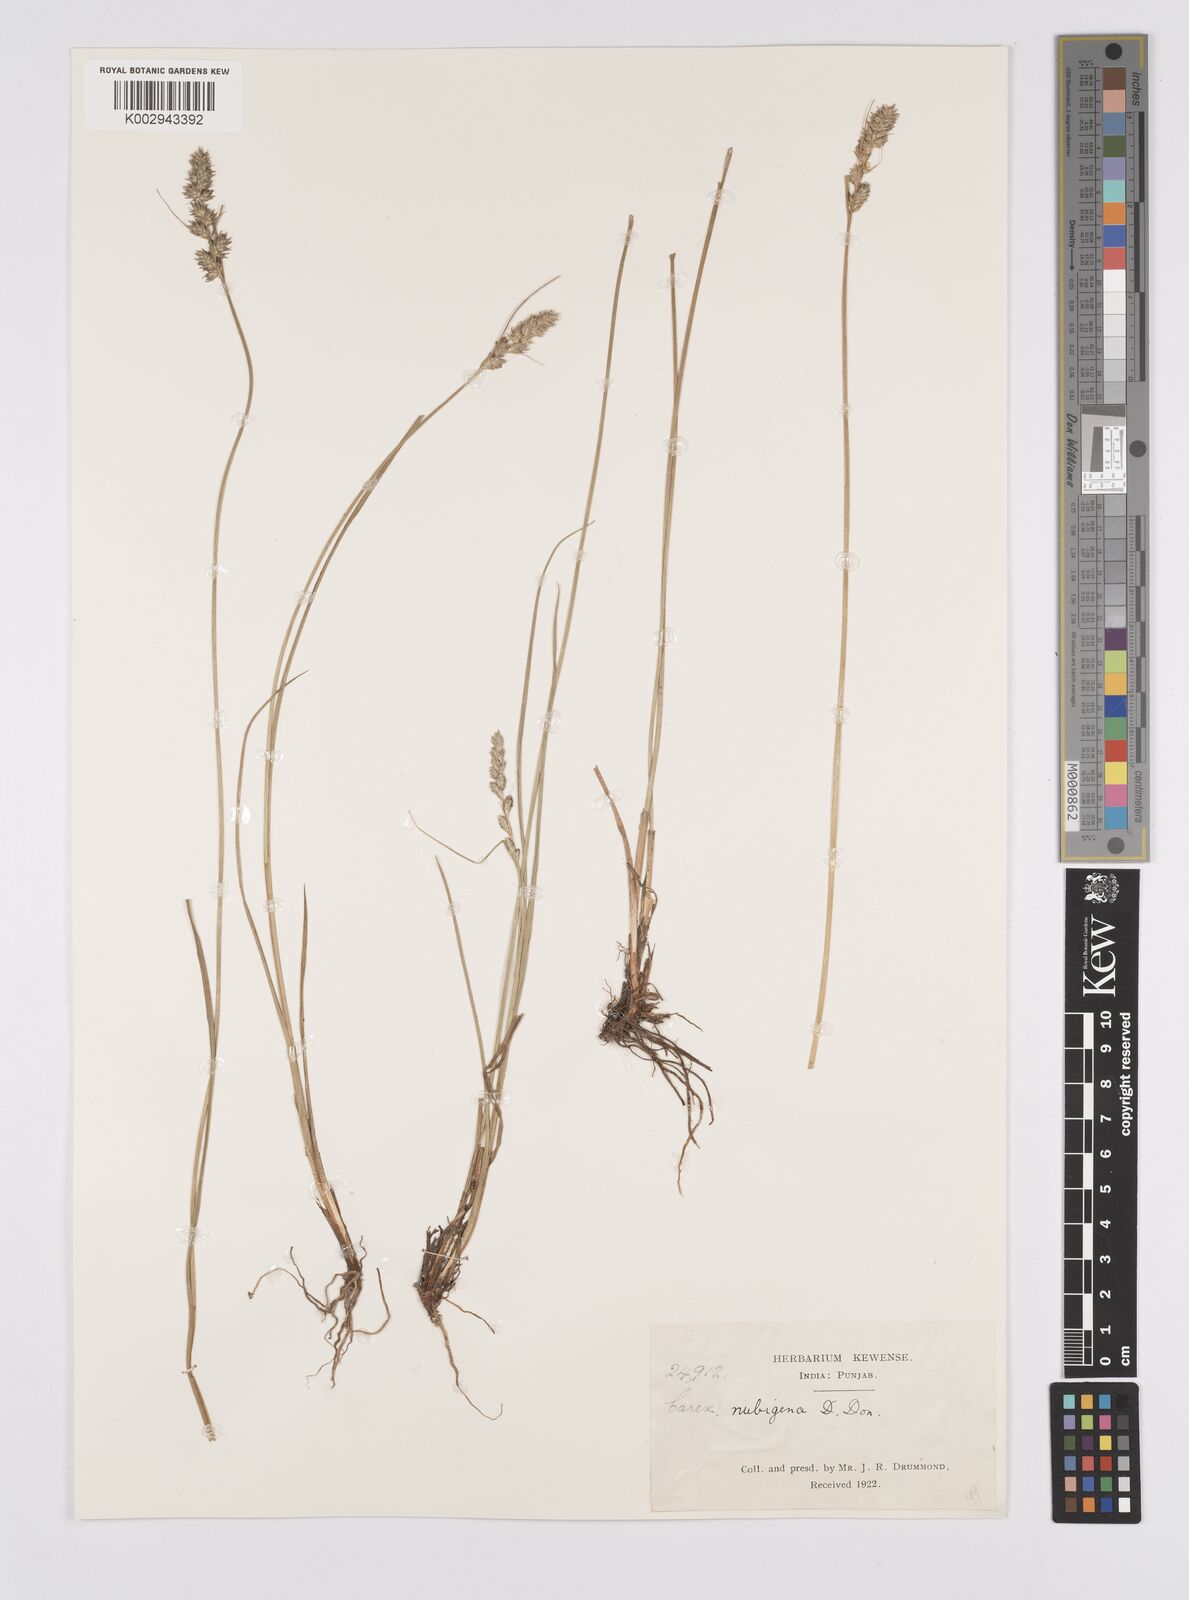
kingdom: Plantae
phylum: Tracheophyta
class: Liliopsida
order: Poales
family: Cyperaceae
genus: Carex
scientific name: Carex nubigena
